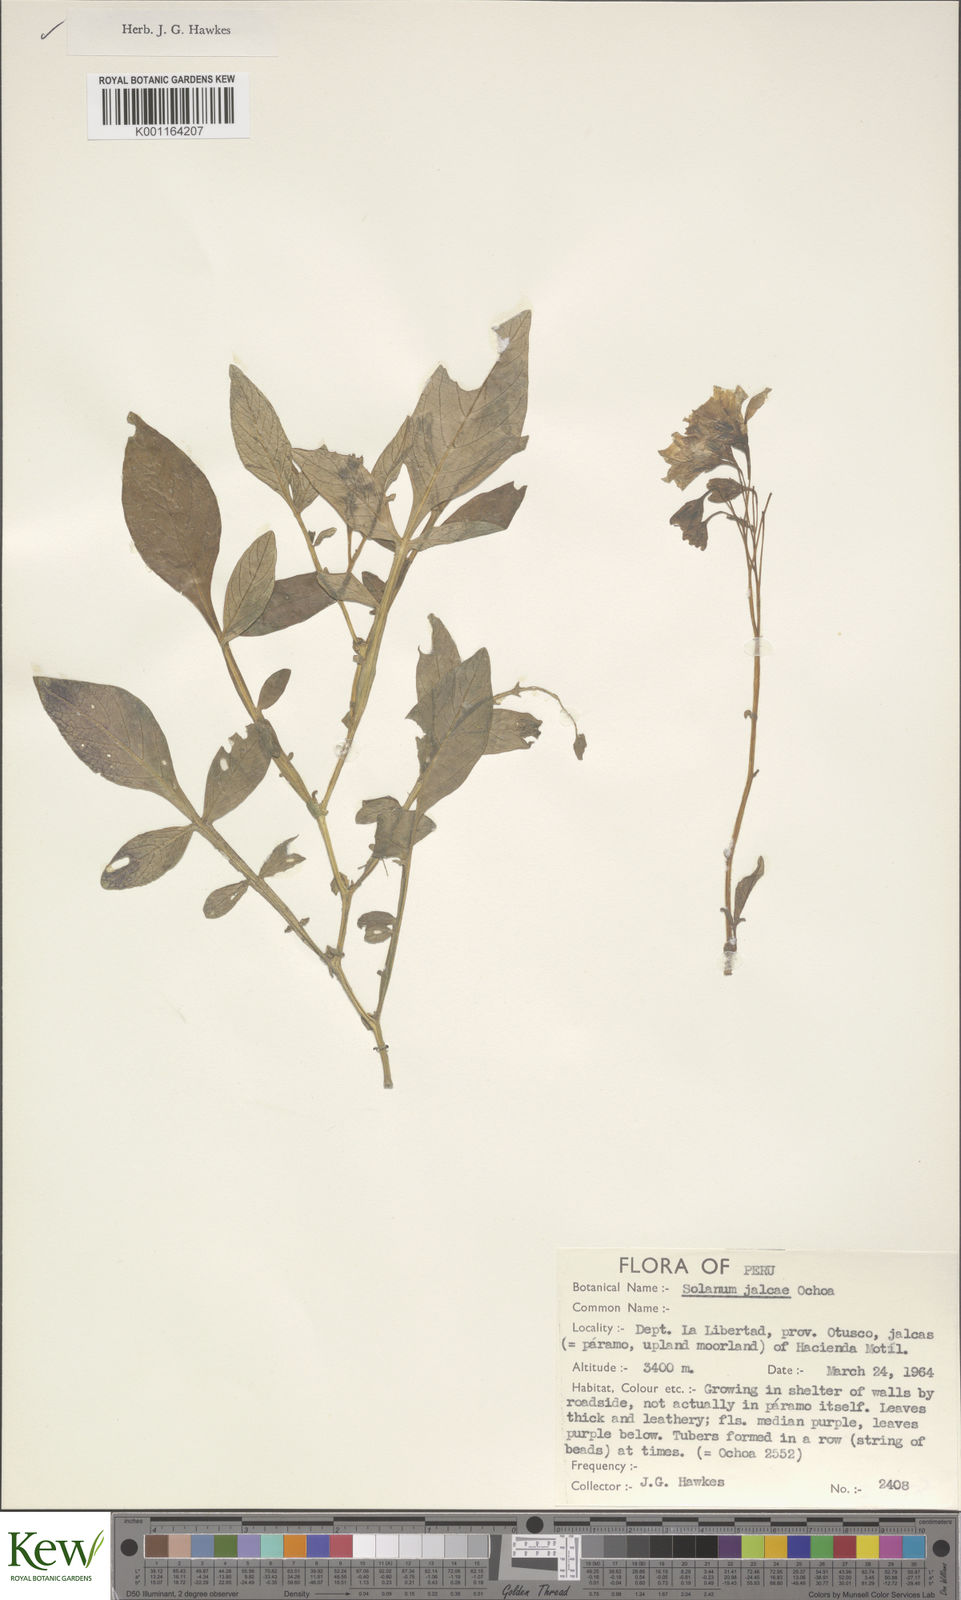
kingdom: Plantae
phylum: Tracheophyta
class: Magnoliopsida
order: Solanales
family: Solanaceae
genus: Solanum
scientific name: Solanum chomatophilum
